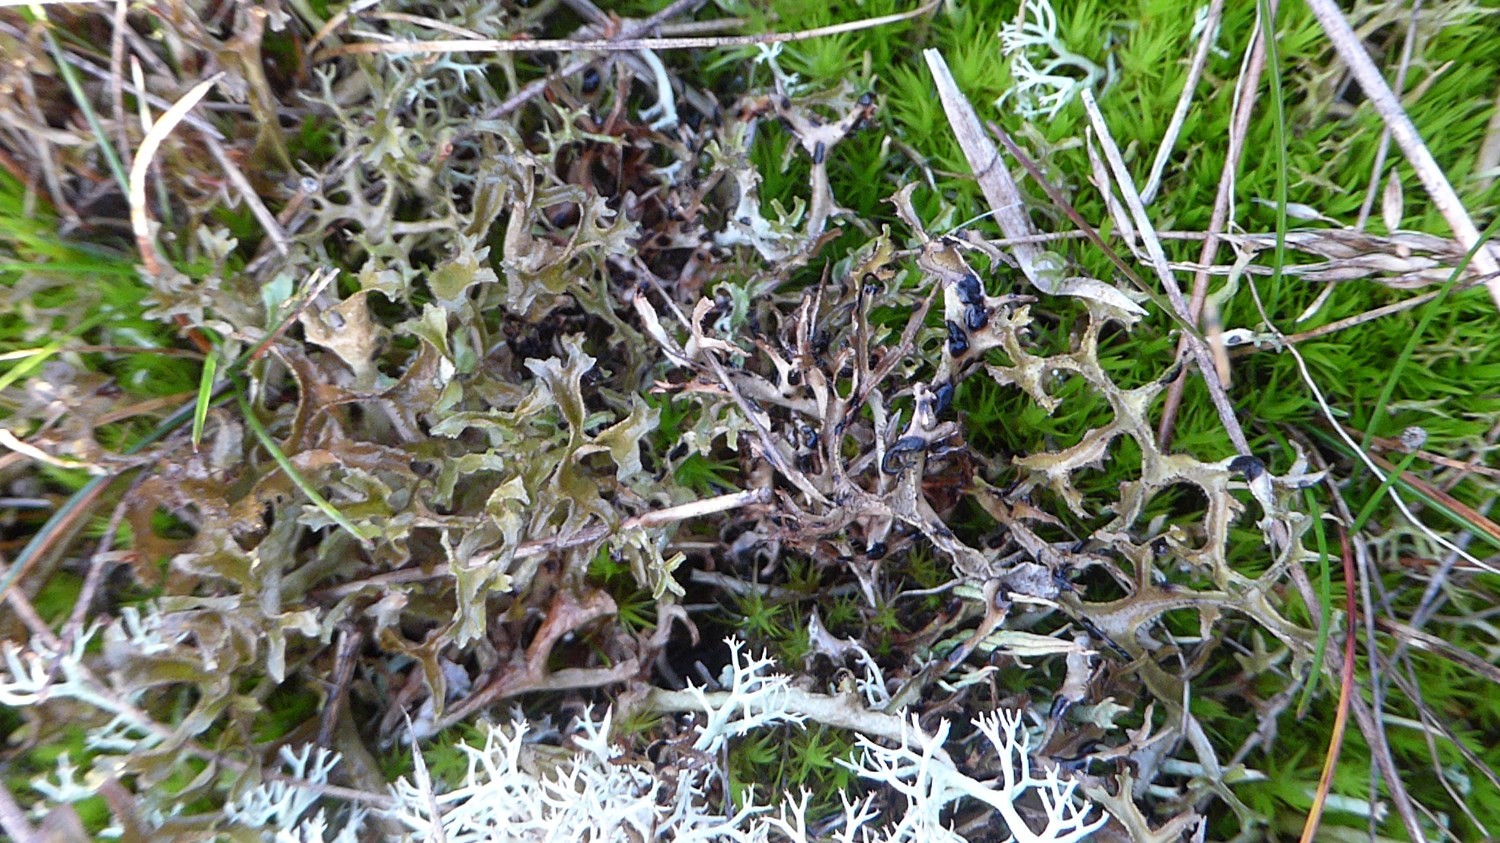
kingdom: Fungi
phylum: Ascomycota
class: Lecanoromycetes
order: Lecanorales
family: Parmeliaceae
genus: Cetraria
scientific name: Cetraria islandica
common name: islandsk kruslav
